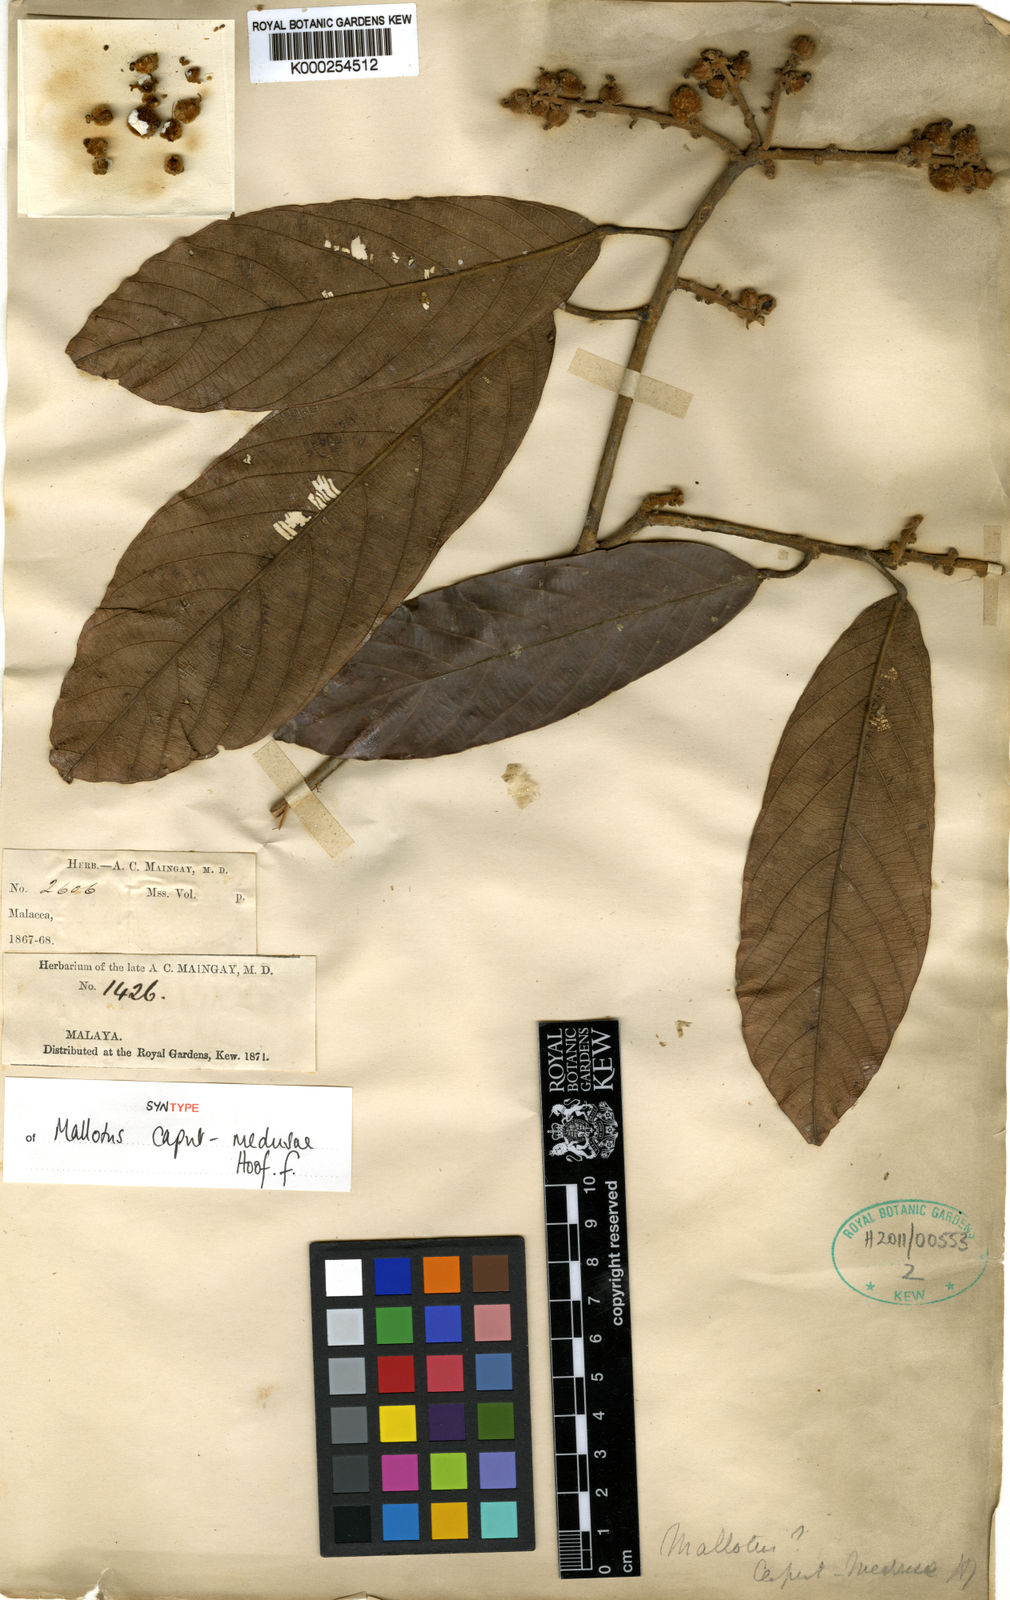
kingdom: Plantae
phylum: Tracheophyta
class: Magnoliopsida
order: Malpighiales
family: Euphorbiaceae
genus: Ptychopyxis
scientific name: Ptychopyxis caput-medusae
